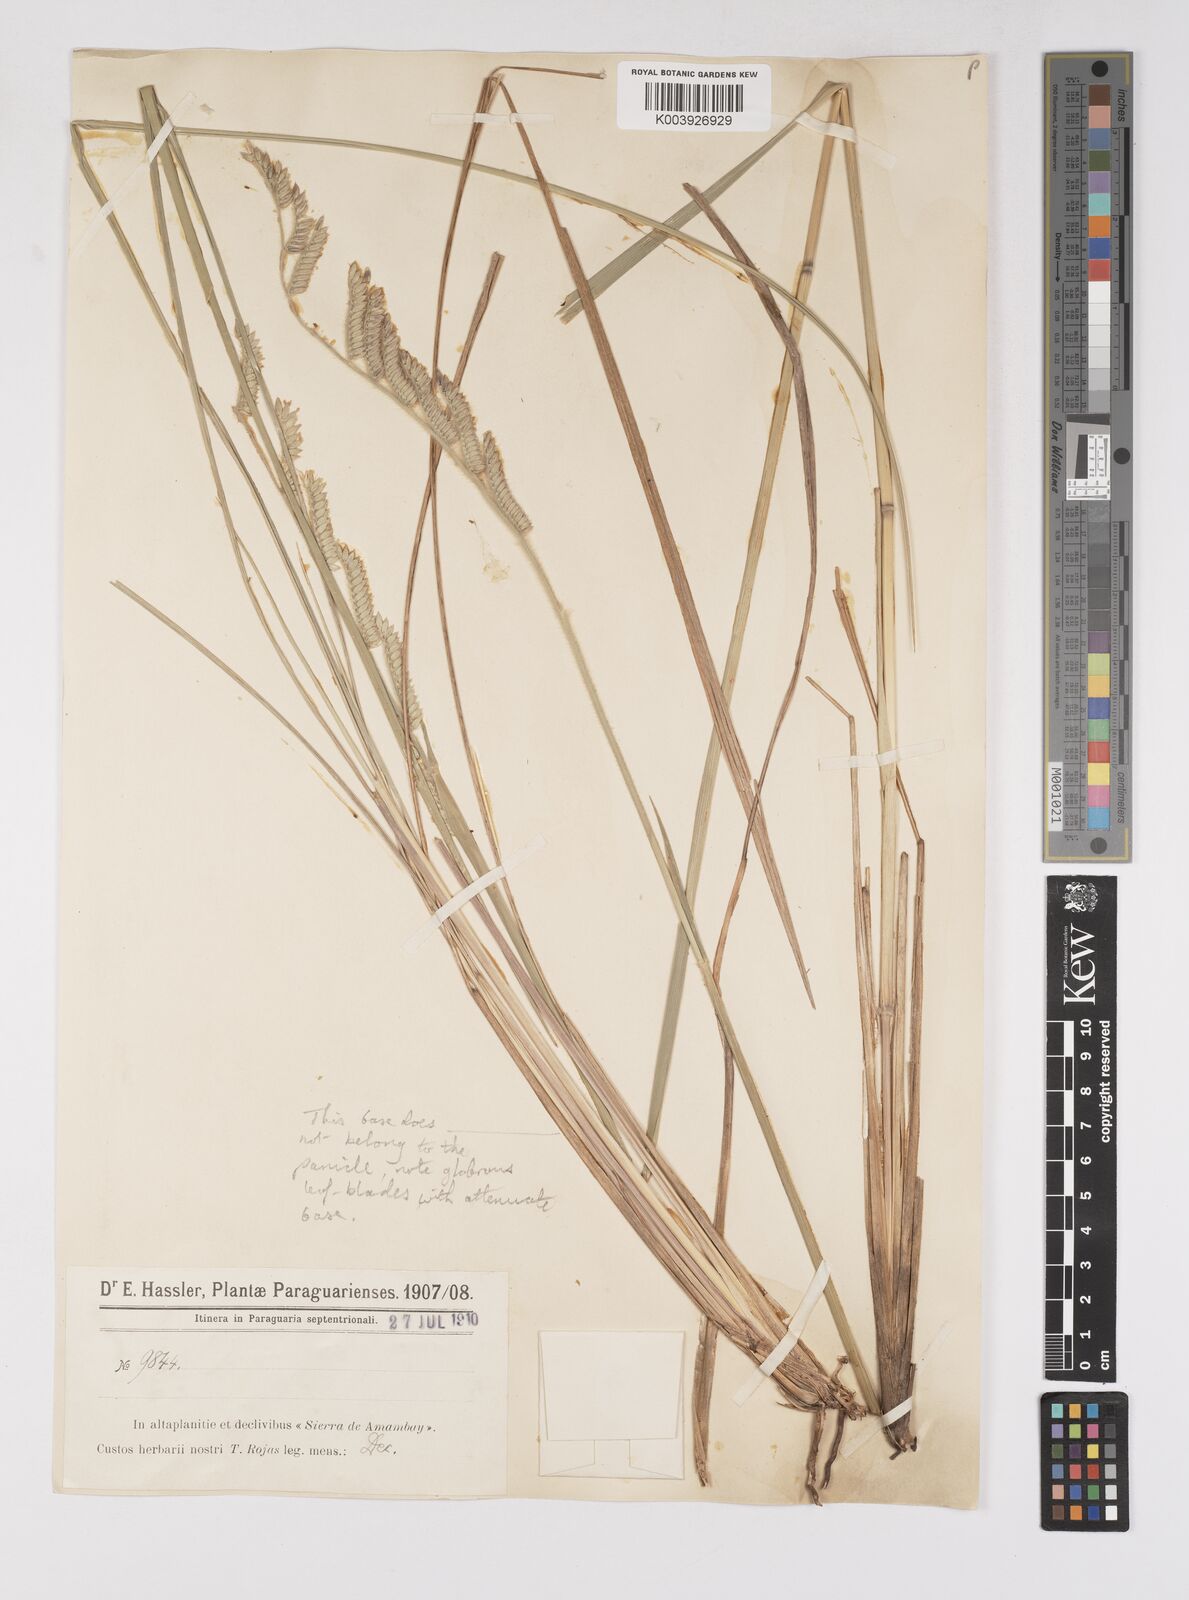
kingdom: Plantae
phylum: Tracheophyta
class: Liliopsida
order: Poales
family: Poaceae
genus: Eriochloa
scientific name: Eriochloa grandiflora
